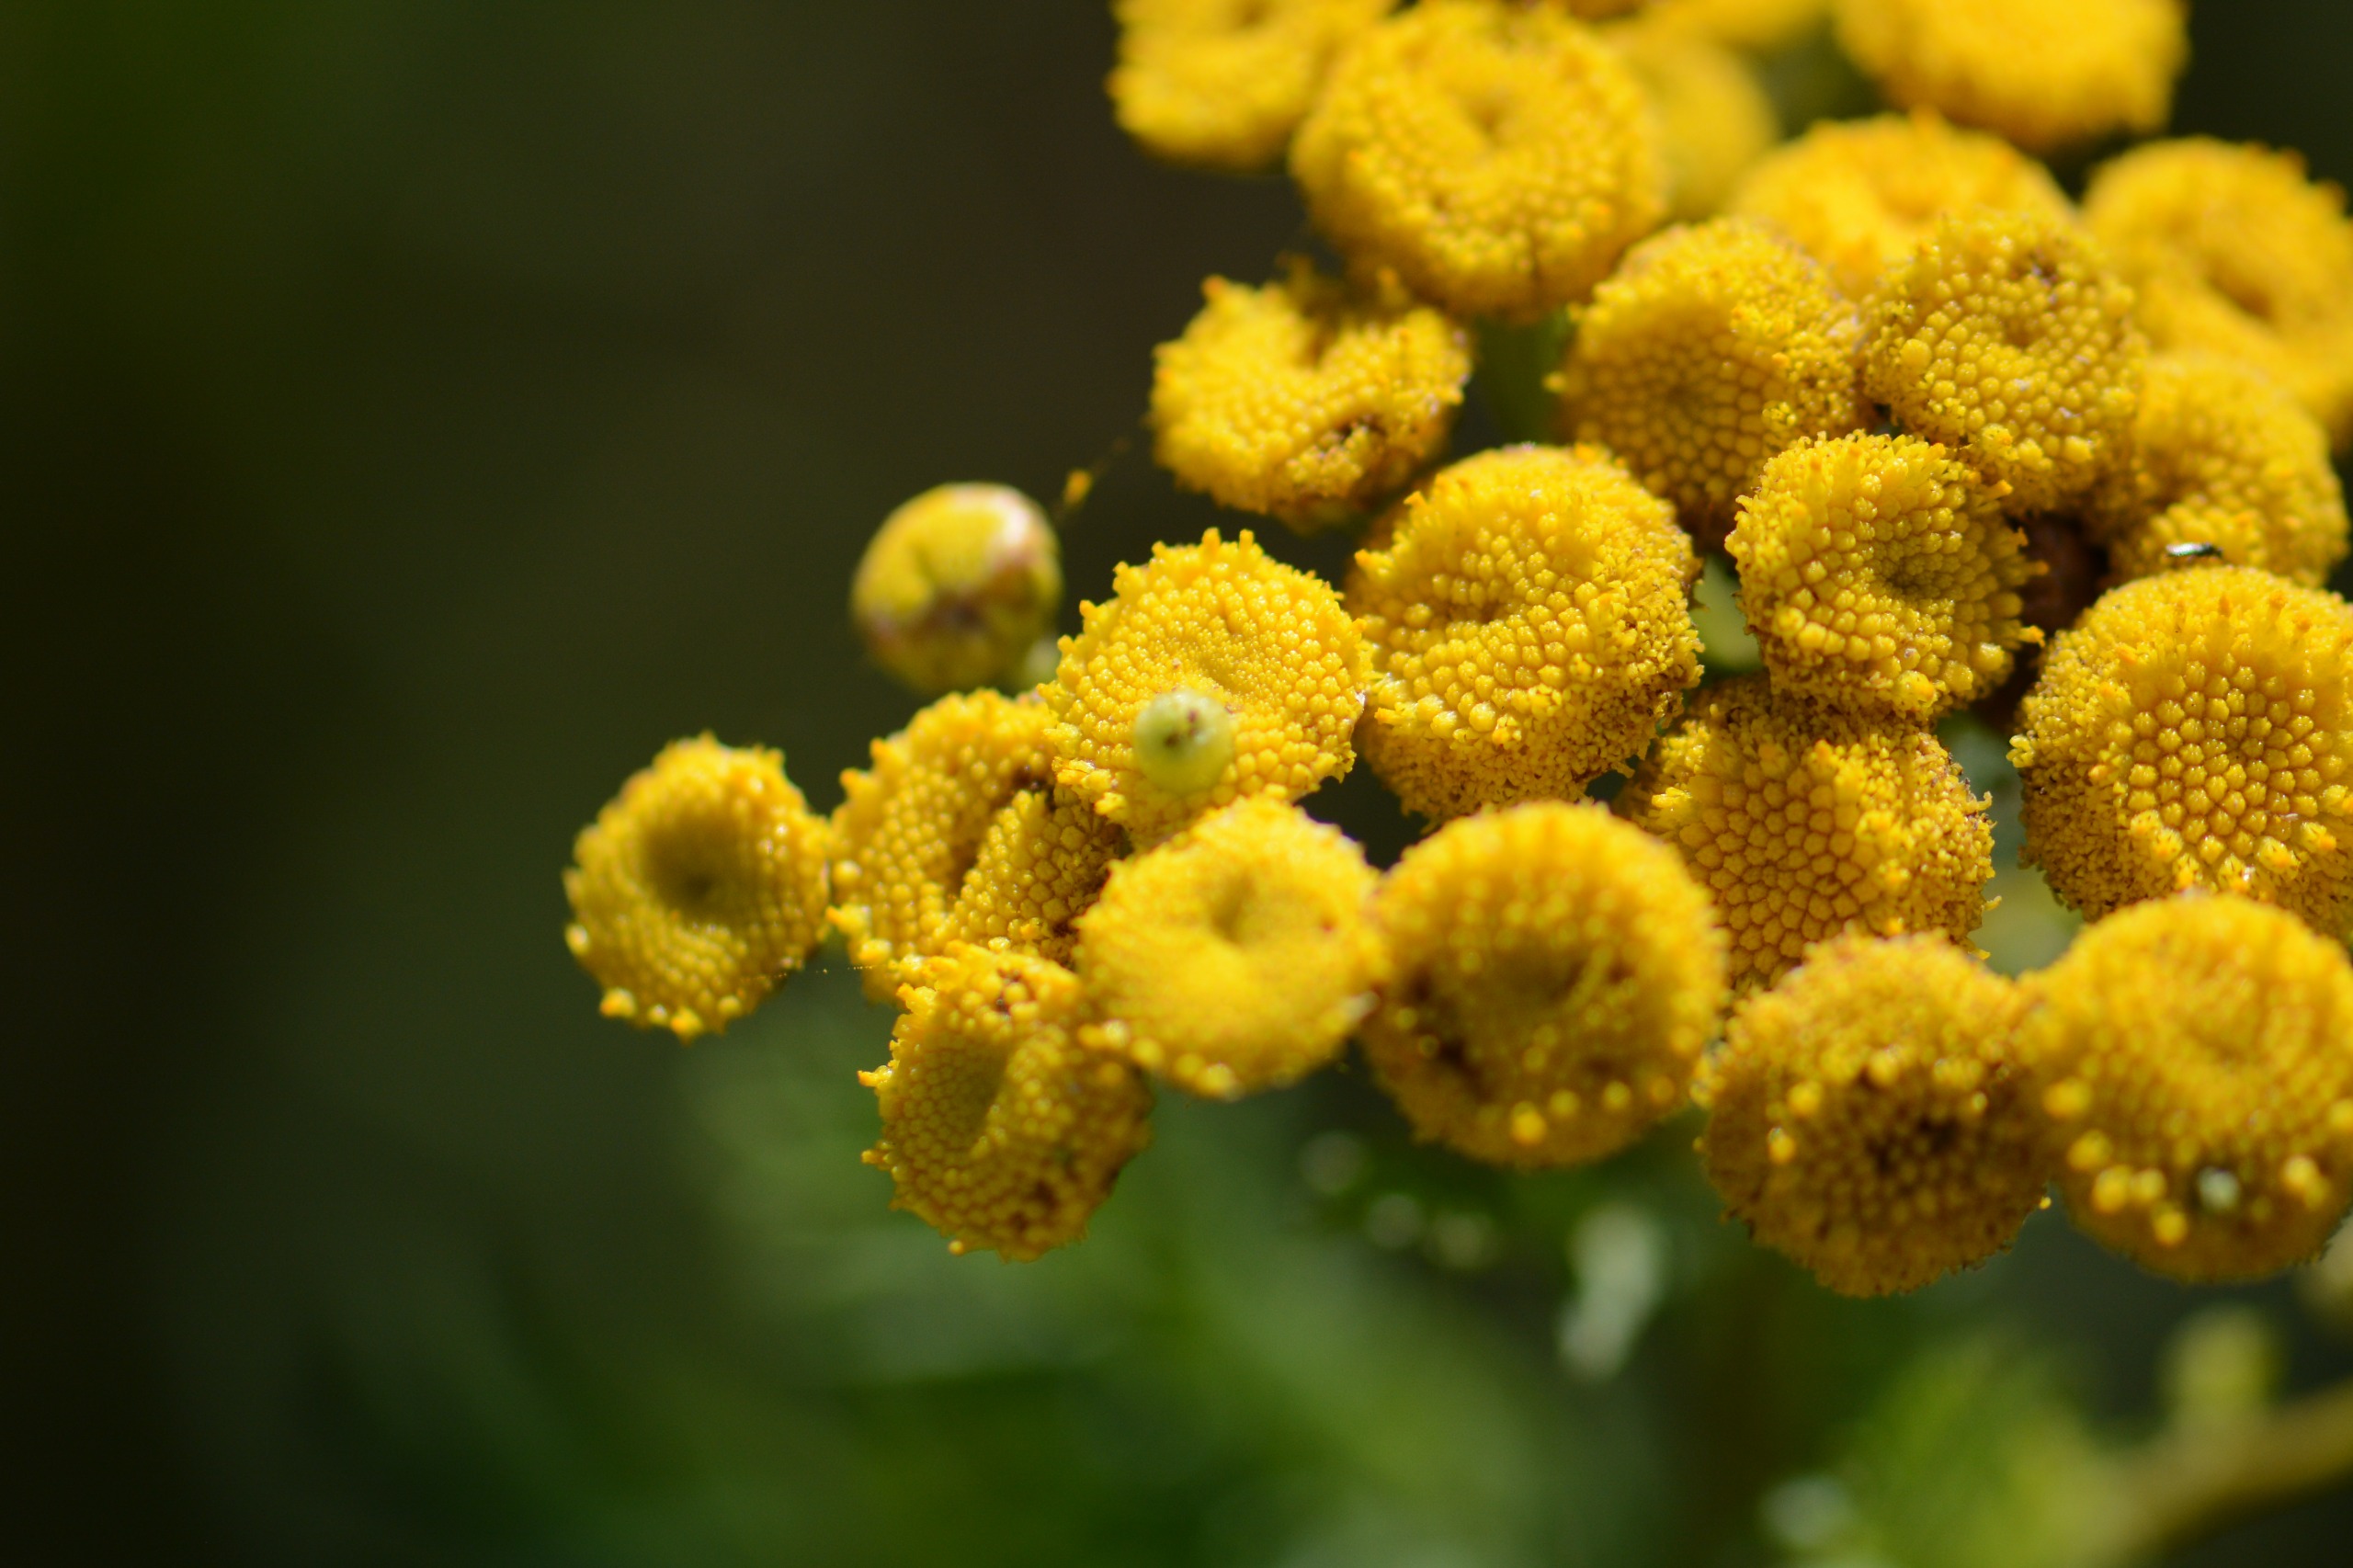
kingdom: Animalia
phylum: Arthropoda
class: Insecta
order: Diptera
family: Cecidomyiidae
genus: Rhopalomyia
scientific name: Rhopalomyia tanaceticolus
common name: Rejnfangalmyg
